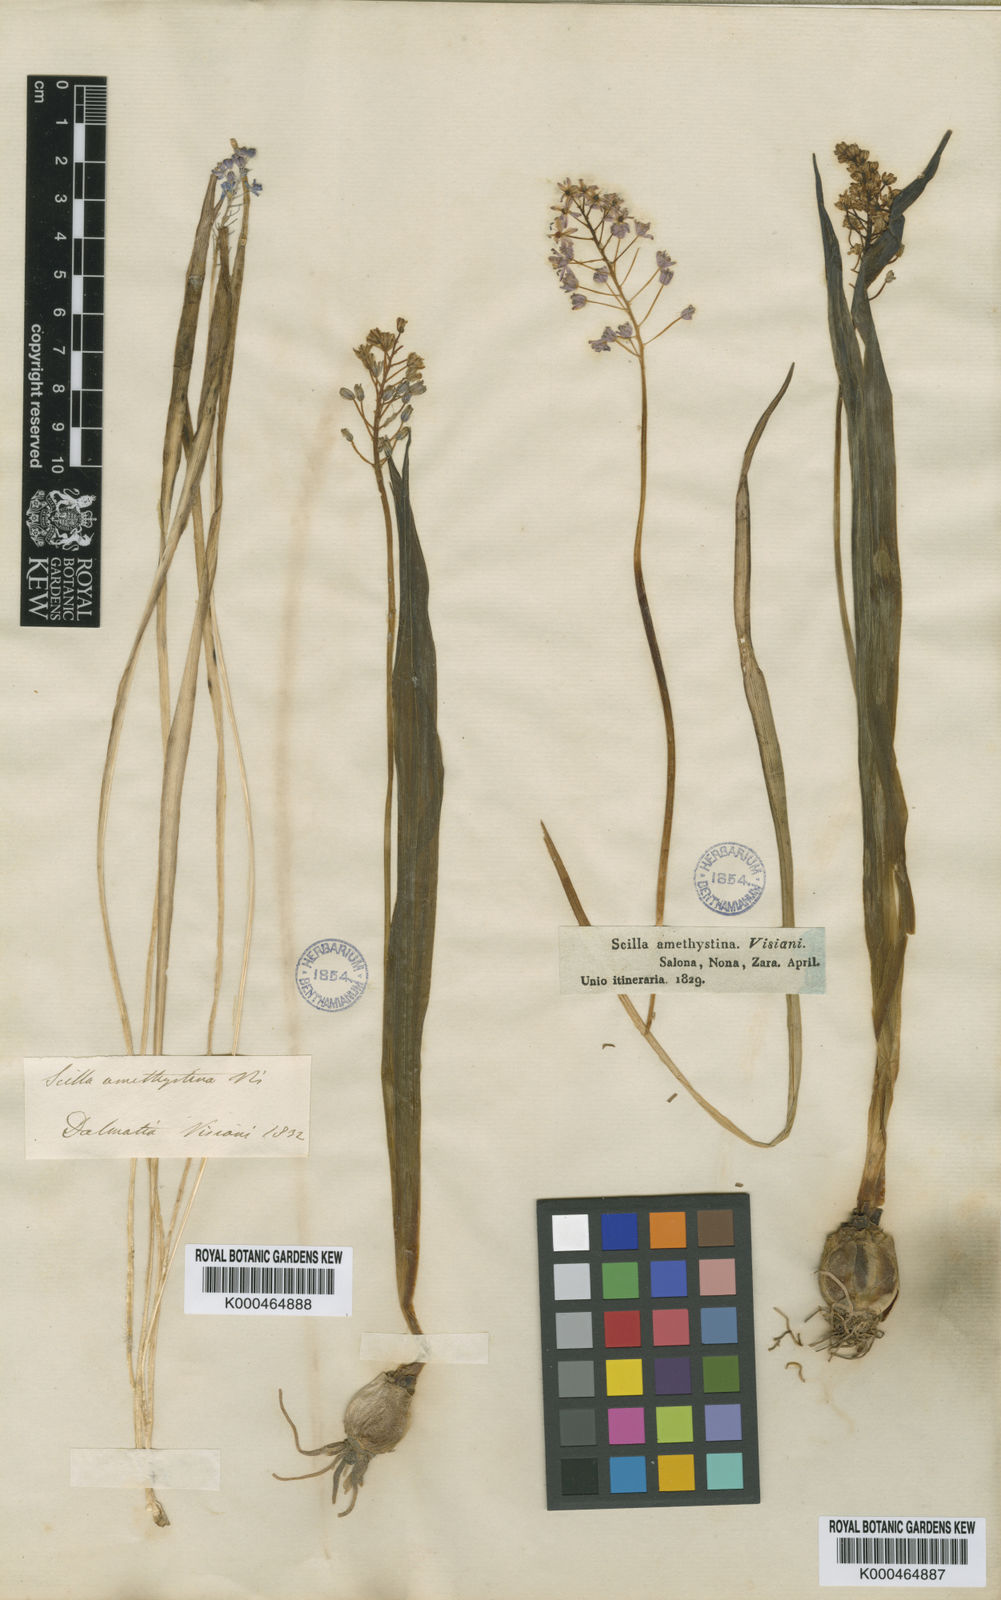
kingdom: Plantae
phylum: Tracheophyta
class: Liliopsida
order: Asparagales
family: Asparagaceae
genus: Scilla
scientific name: Scilla litardierei
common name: Amethyst meadow squill
